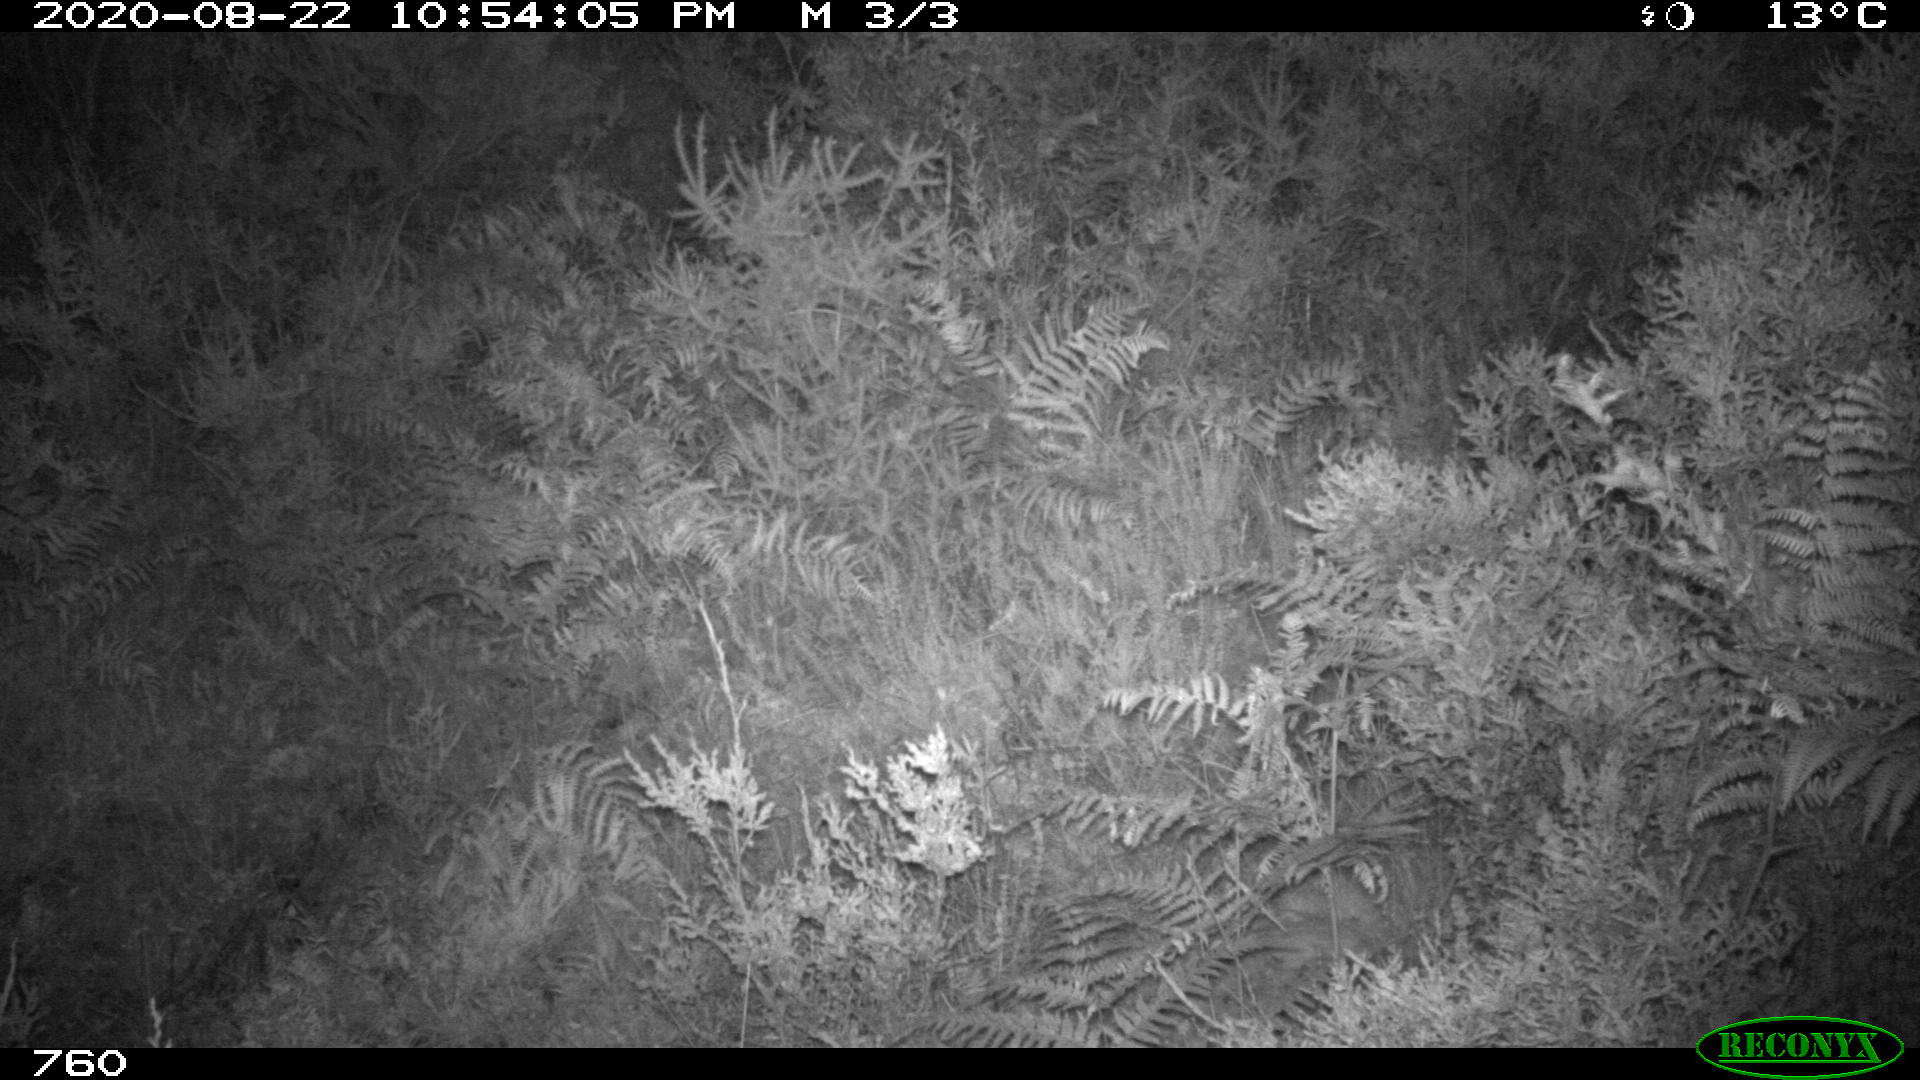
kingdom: Animalia
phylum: Chordata
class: Mammalia
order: Artiodactyla
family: Cervidae
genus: Capreolus
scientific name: Capreolus capreolus
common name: Western roe deer
